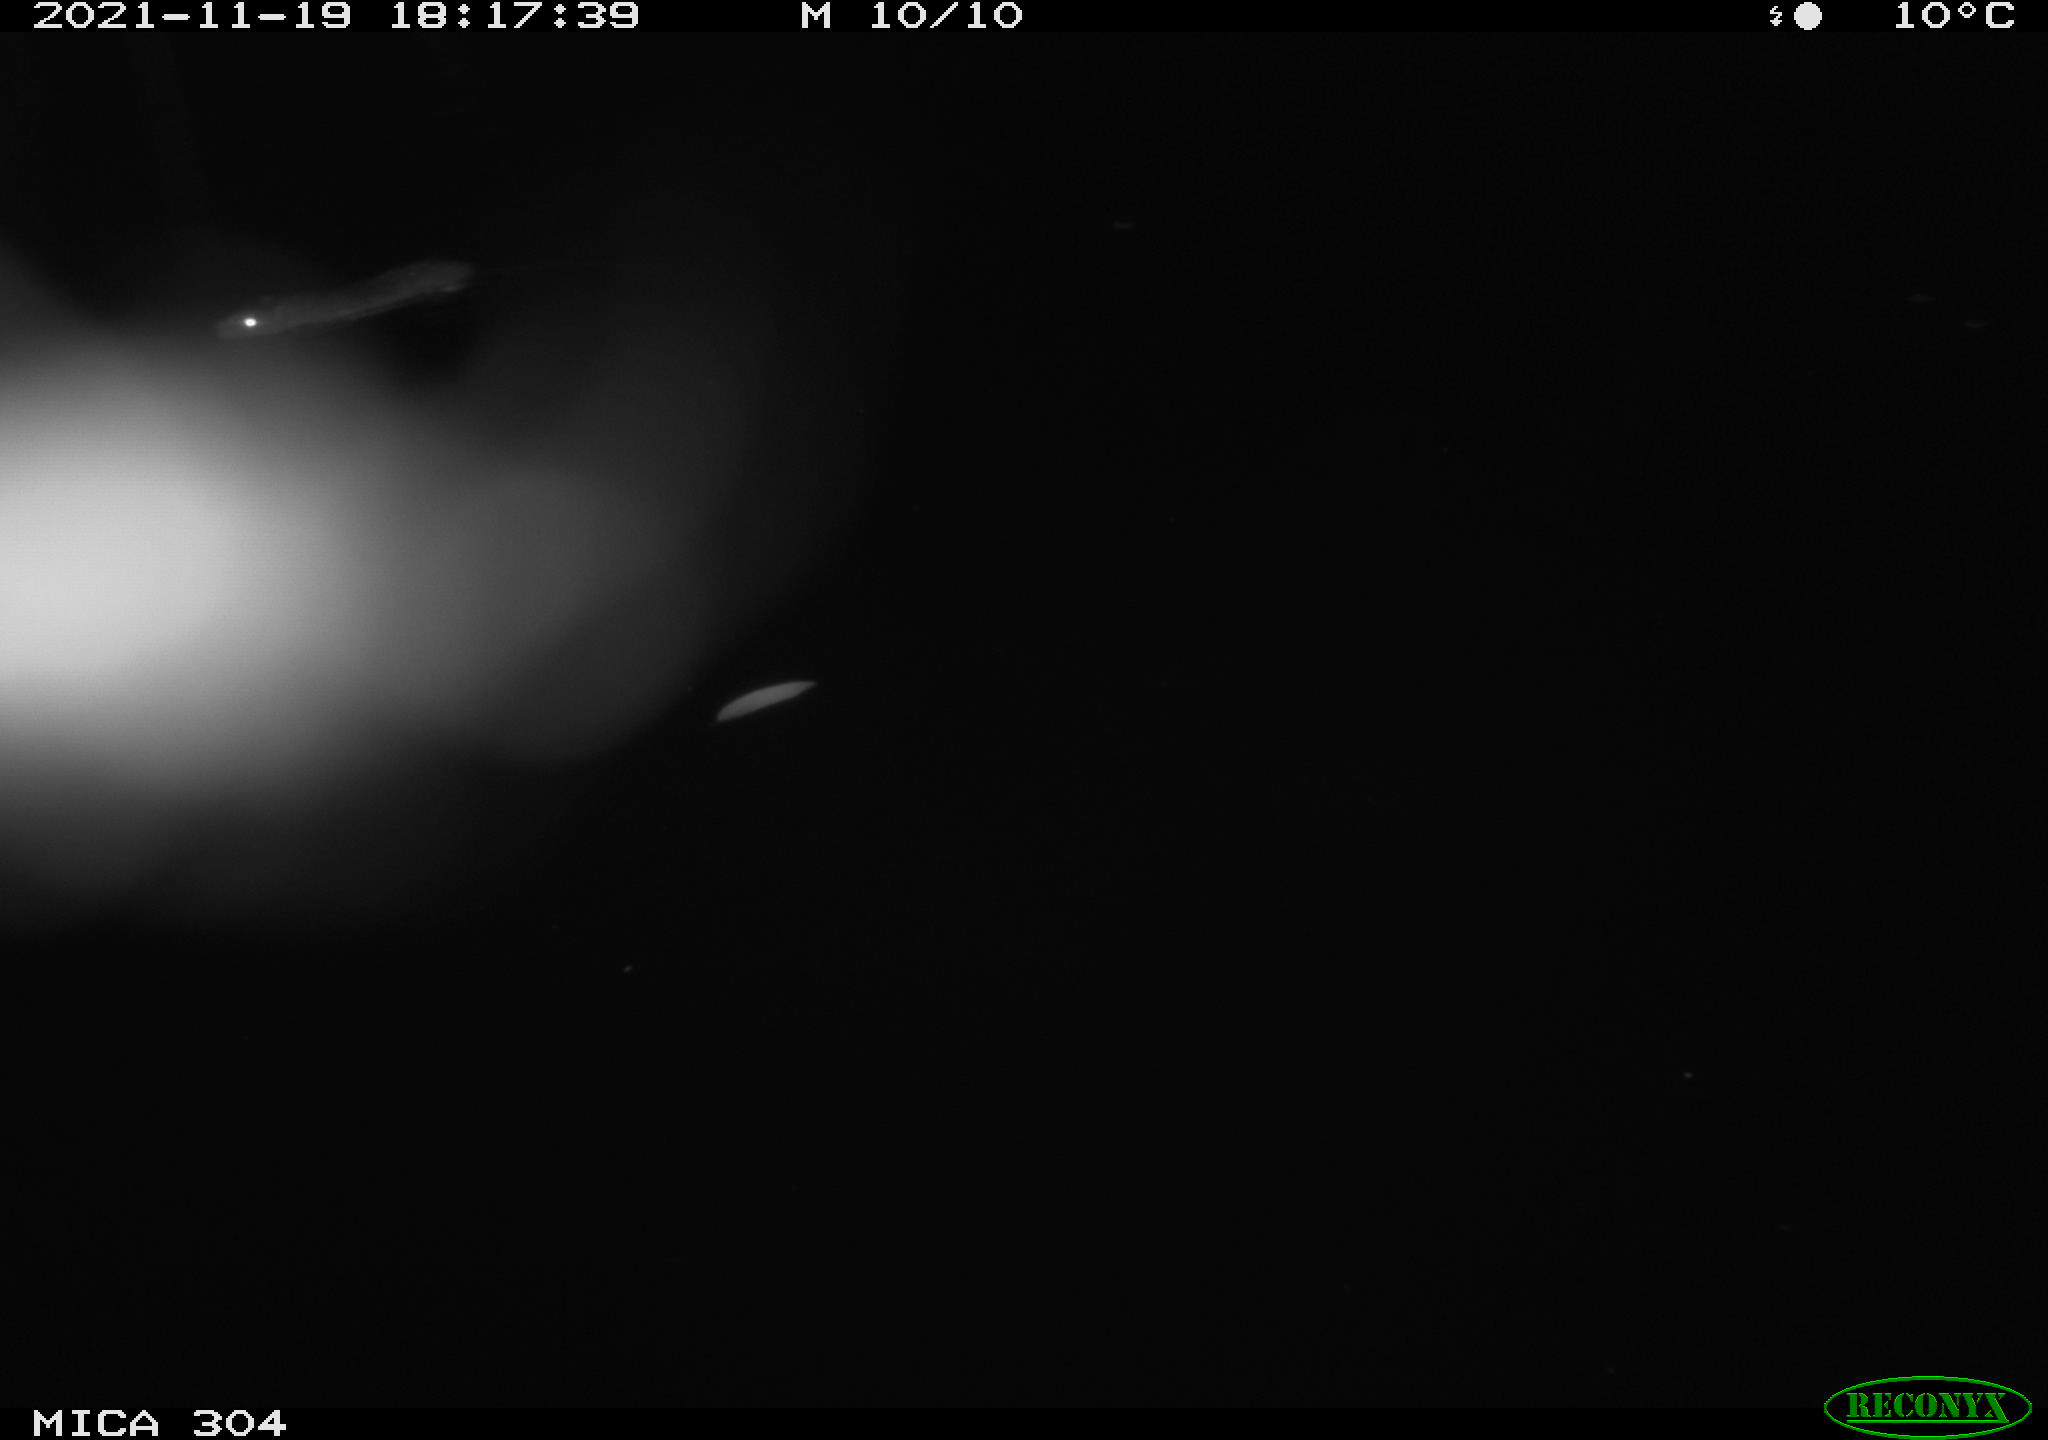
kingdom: Animalia
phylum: Chordata
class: Mammalia
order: Rodentia
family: Muridae
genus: Rattus
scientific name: Rattus norvegicus
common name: Brown rat
